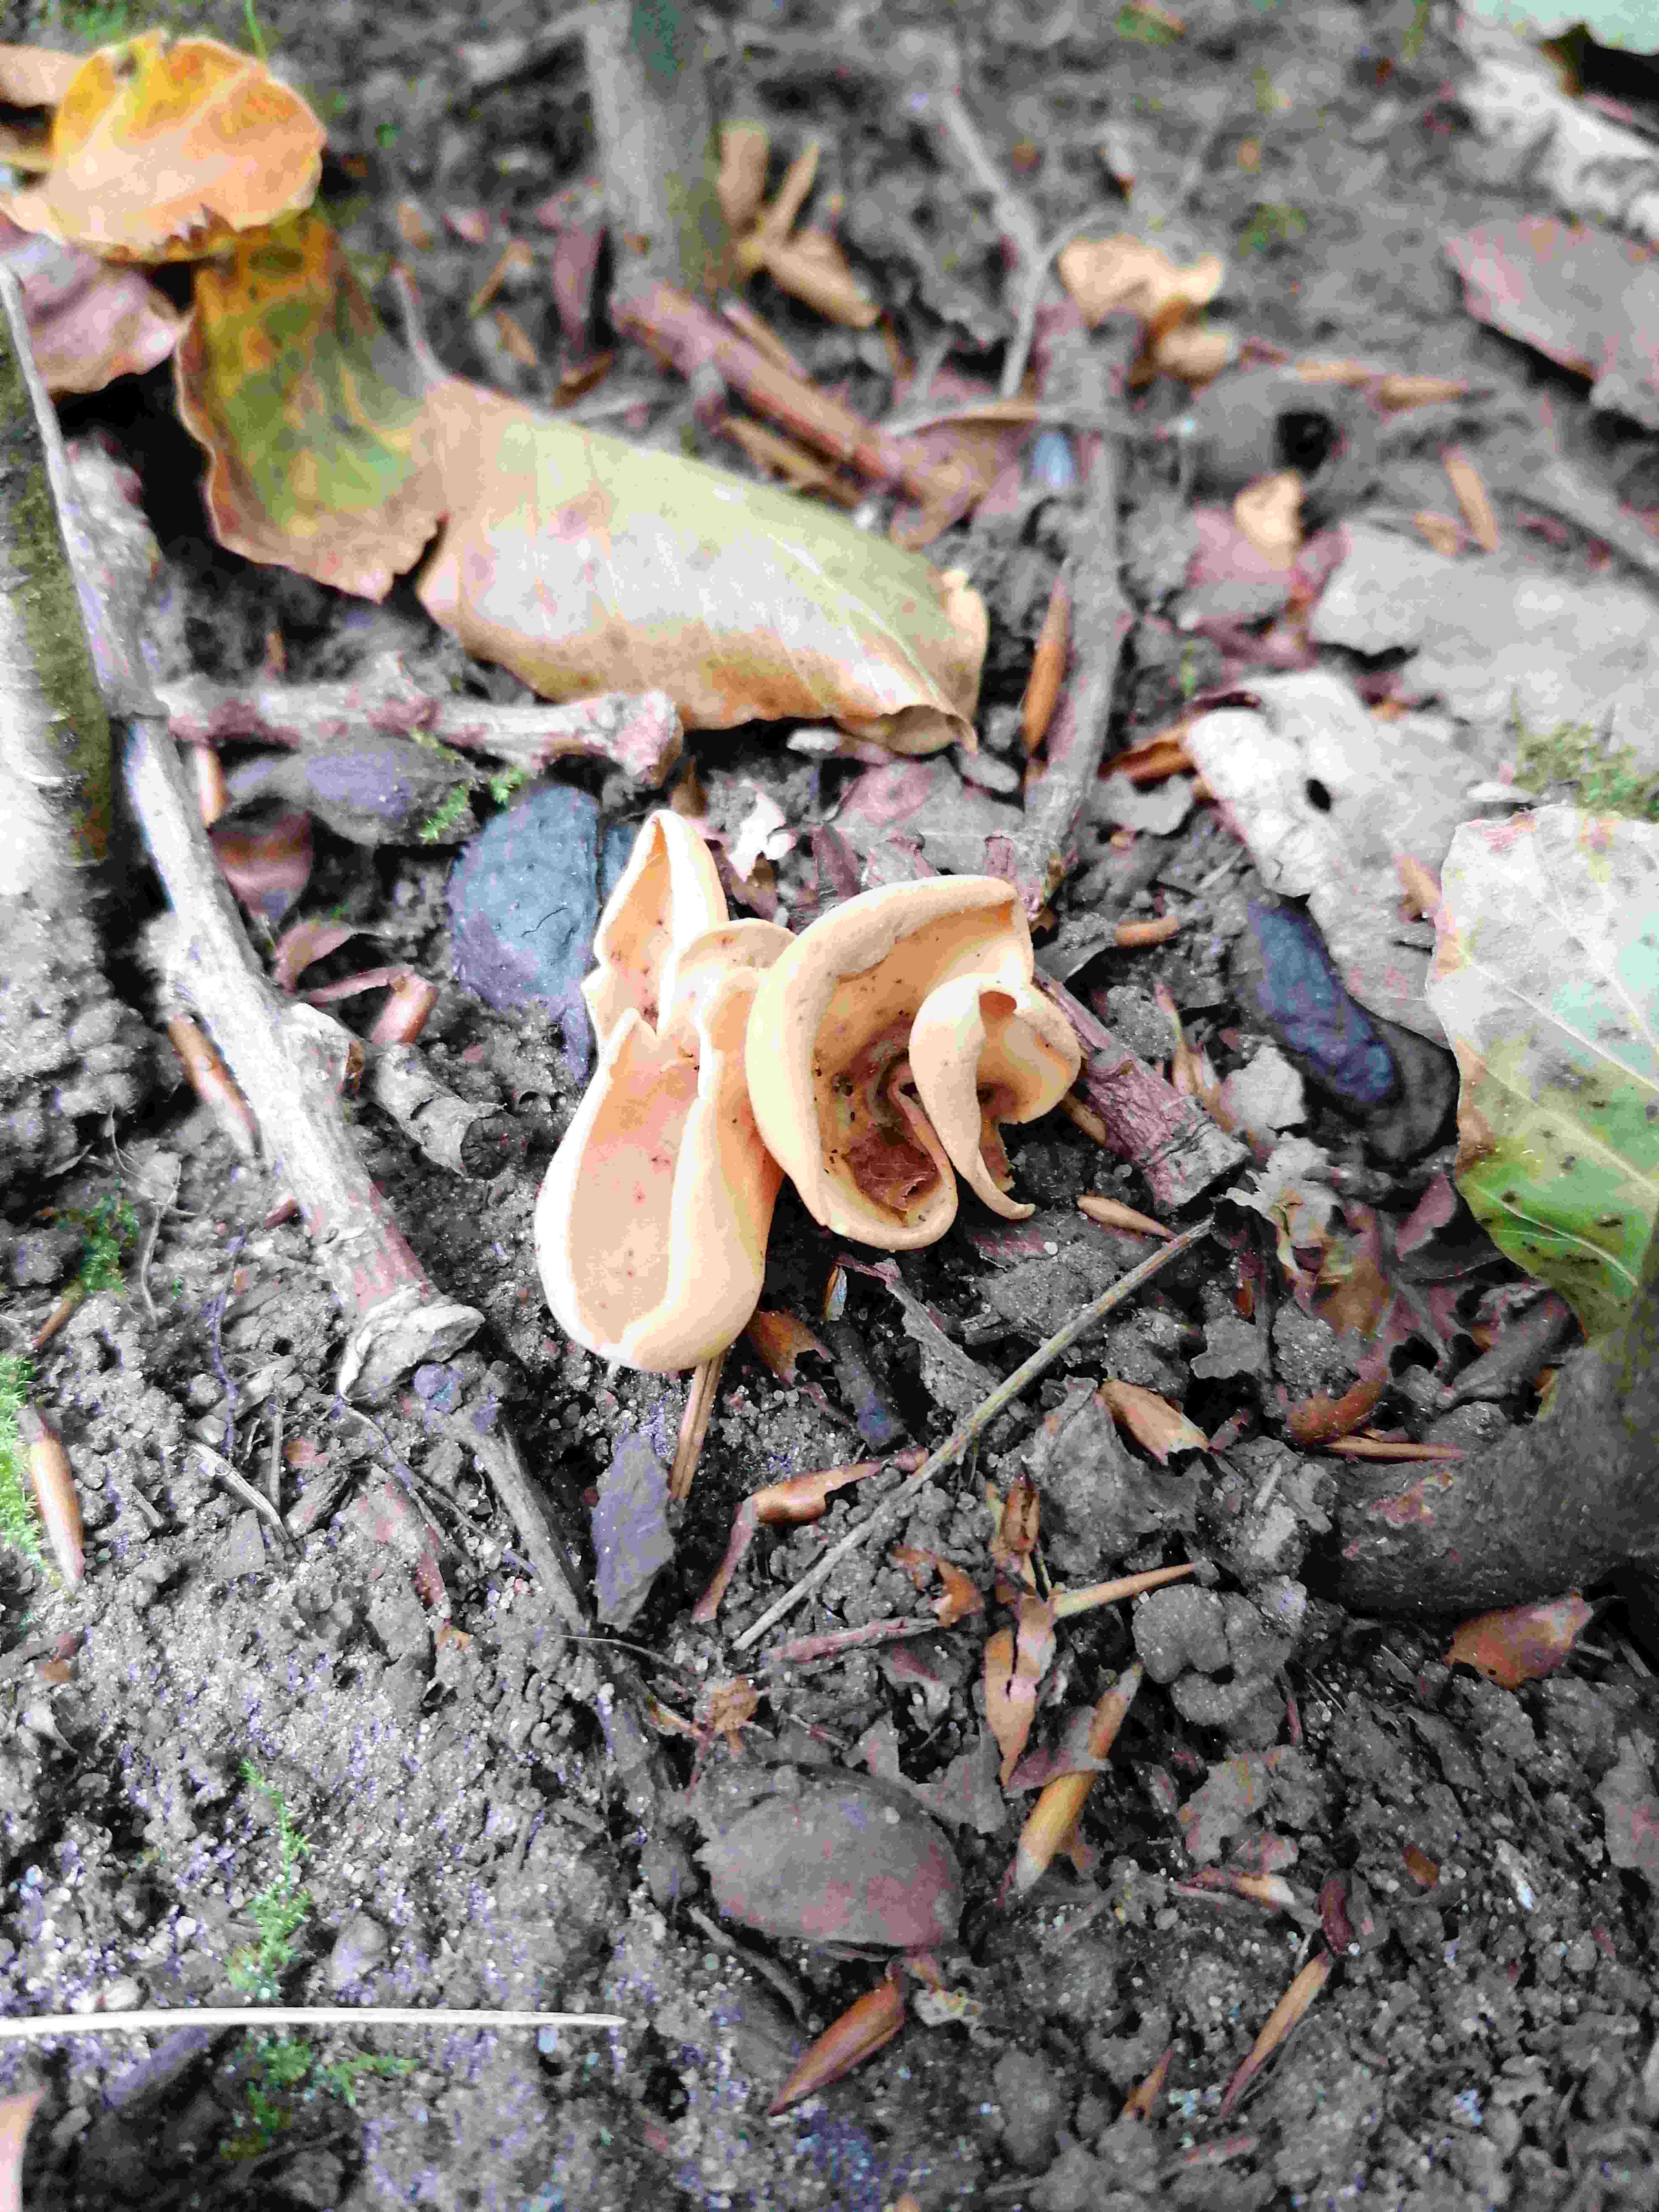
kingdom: Fungi
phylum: Ascomycota
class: Pezizomycetes
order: Pezizales
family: Otideaceae
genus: Otidea
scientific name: Otidea onotica
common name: æsel-ørebæger
